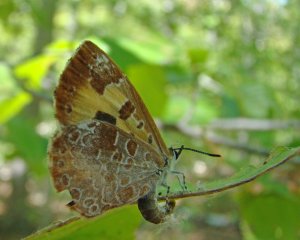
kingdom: Animalia
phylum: Arthropoda
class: Insecta
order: Lepidoptera
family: Lycaenidae
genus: Feniseca
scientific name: Feniseca tarquinius
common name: Harvester
